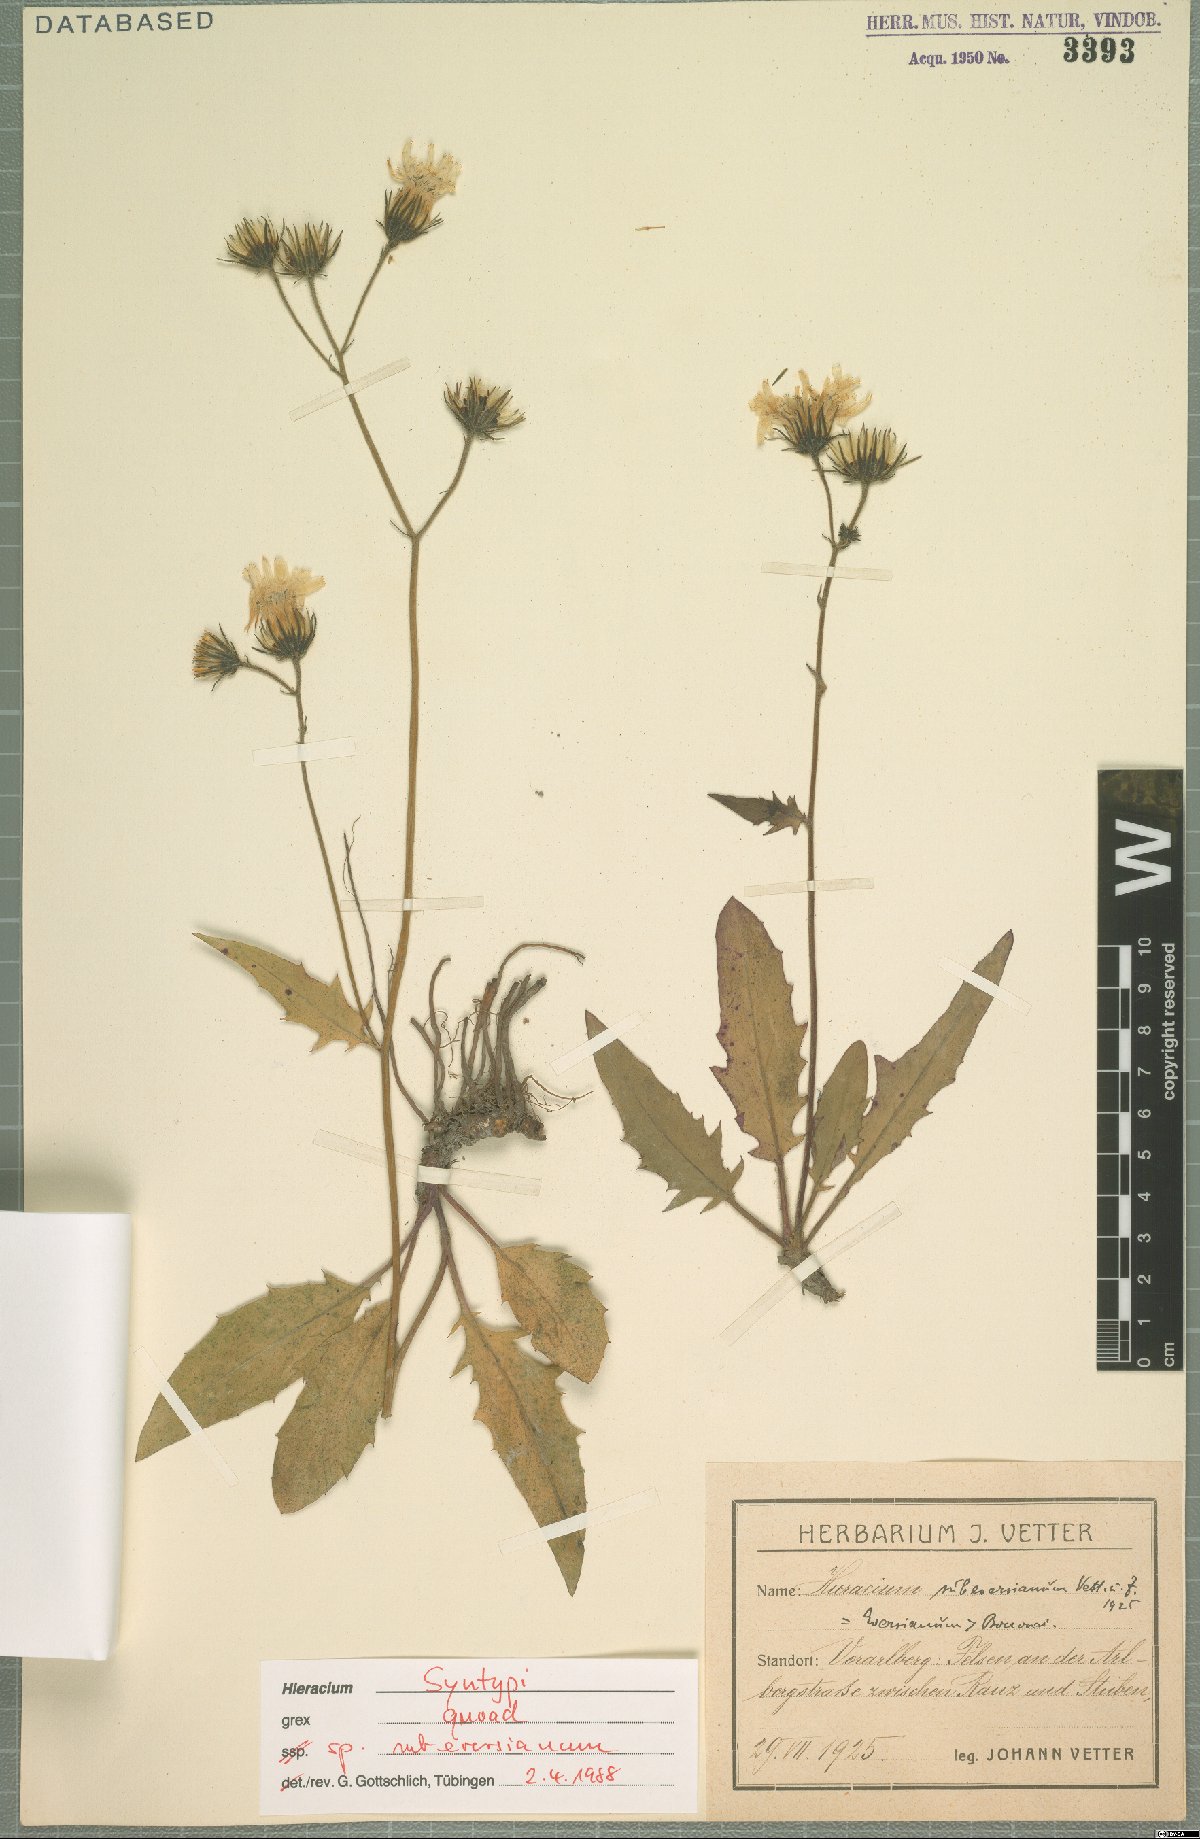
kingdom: Plantae
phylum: Tracheophyta
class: Magnoliopsida
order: Asterales
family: Asteraceae
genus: Hieracium
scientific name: Hieracium subeversianum
